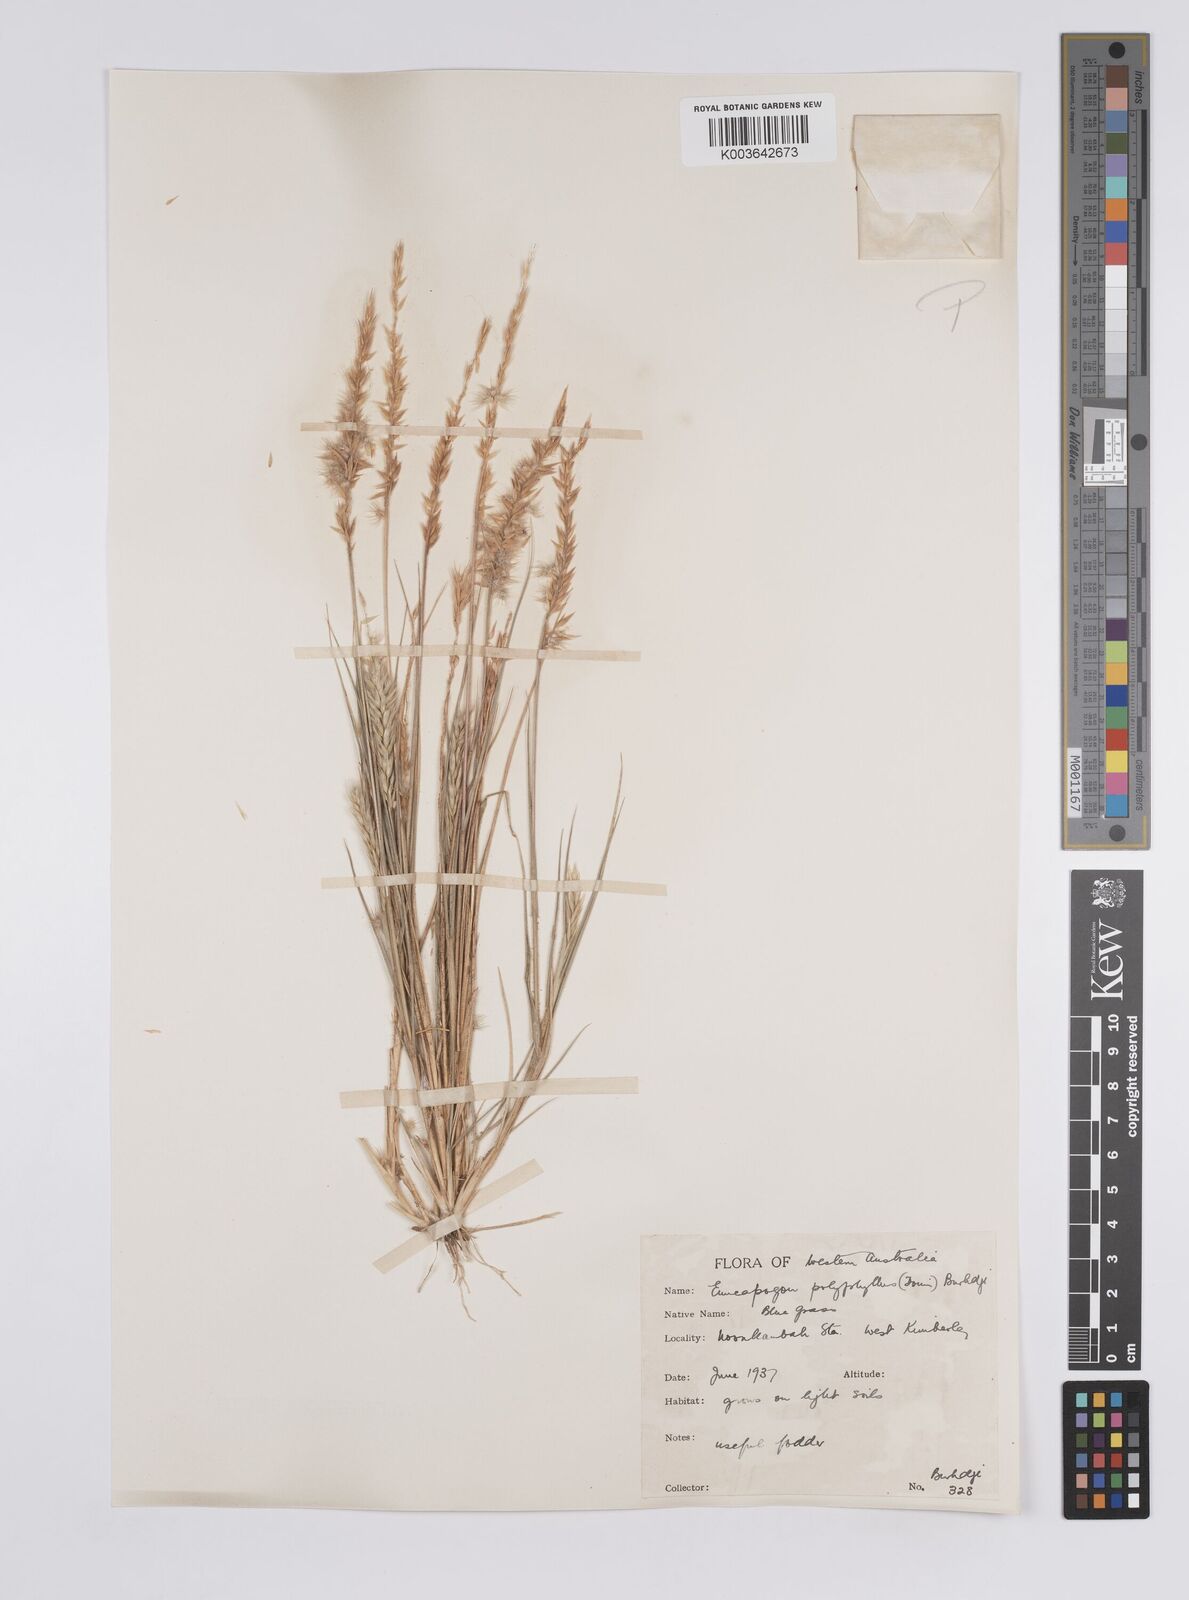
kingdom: Plantae
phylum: Tracheophyta
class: Liliopsida
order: Poales
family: Poaceae
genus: Enneapogon
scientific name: Enneapogon polyphyllus
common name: Leafy nineawn
